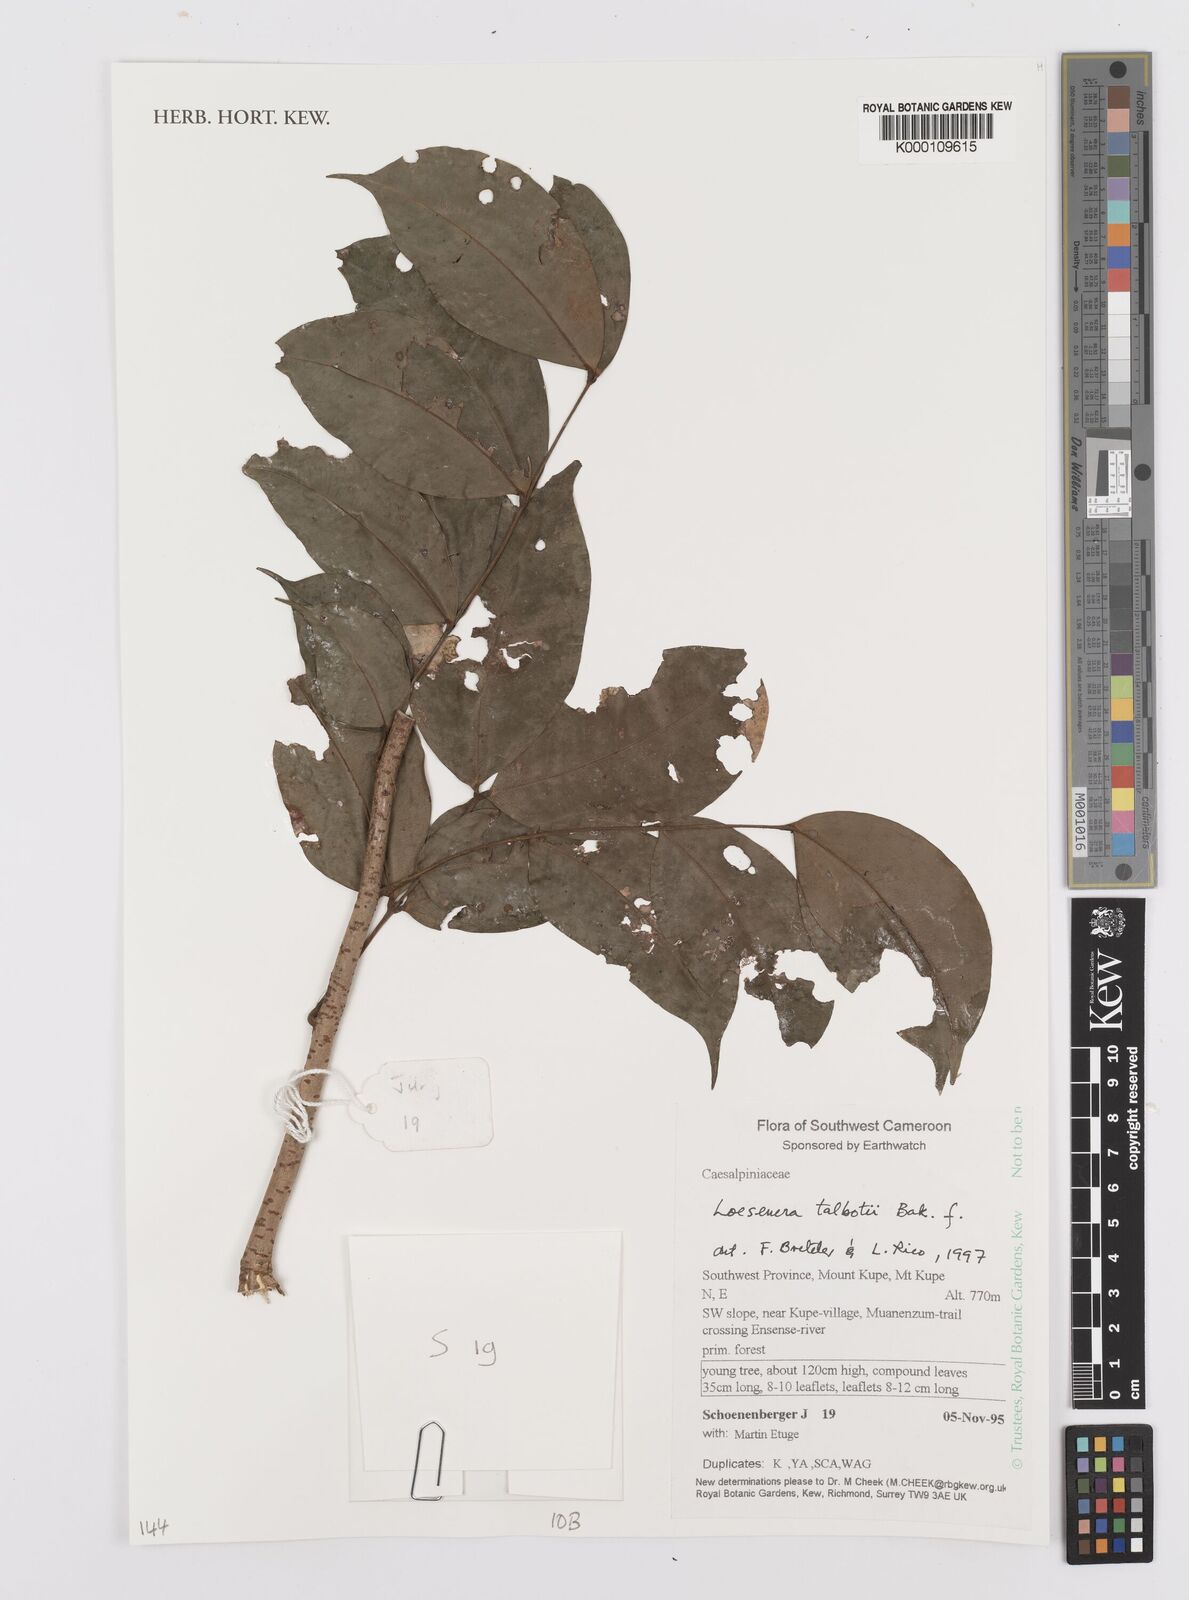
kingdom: Plantae
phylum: Tracheophyta
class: Magnoliopsida
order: Fabales
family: Fabaceae
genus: Loesenera
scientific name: Loesenera talbotii
